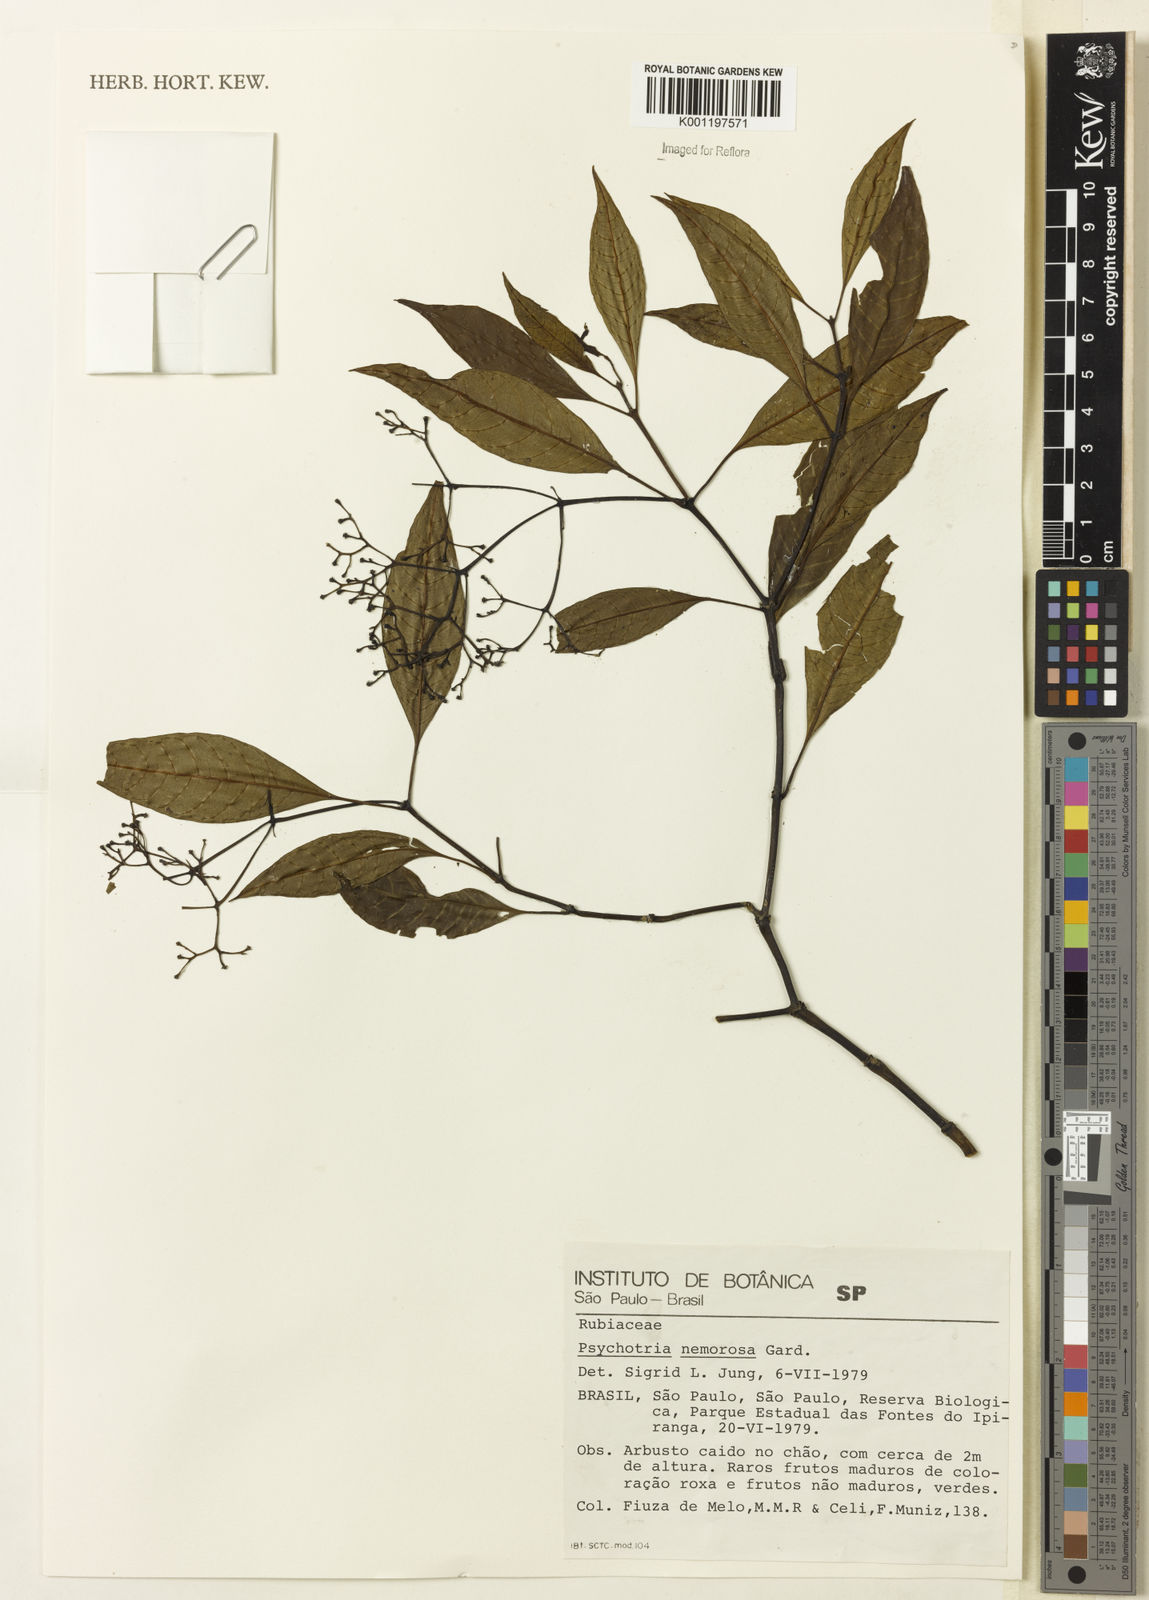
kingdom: Plantae
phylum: Tracheophyta
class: Magnoliopsida
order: Gentianales
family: Rubiaceae
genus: Psychotria
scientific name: Psychotria nemorosa
